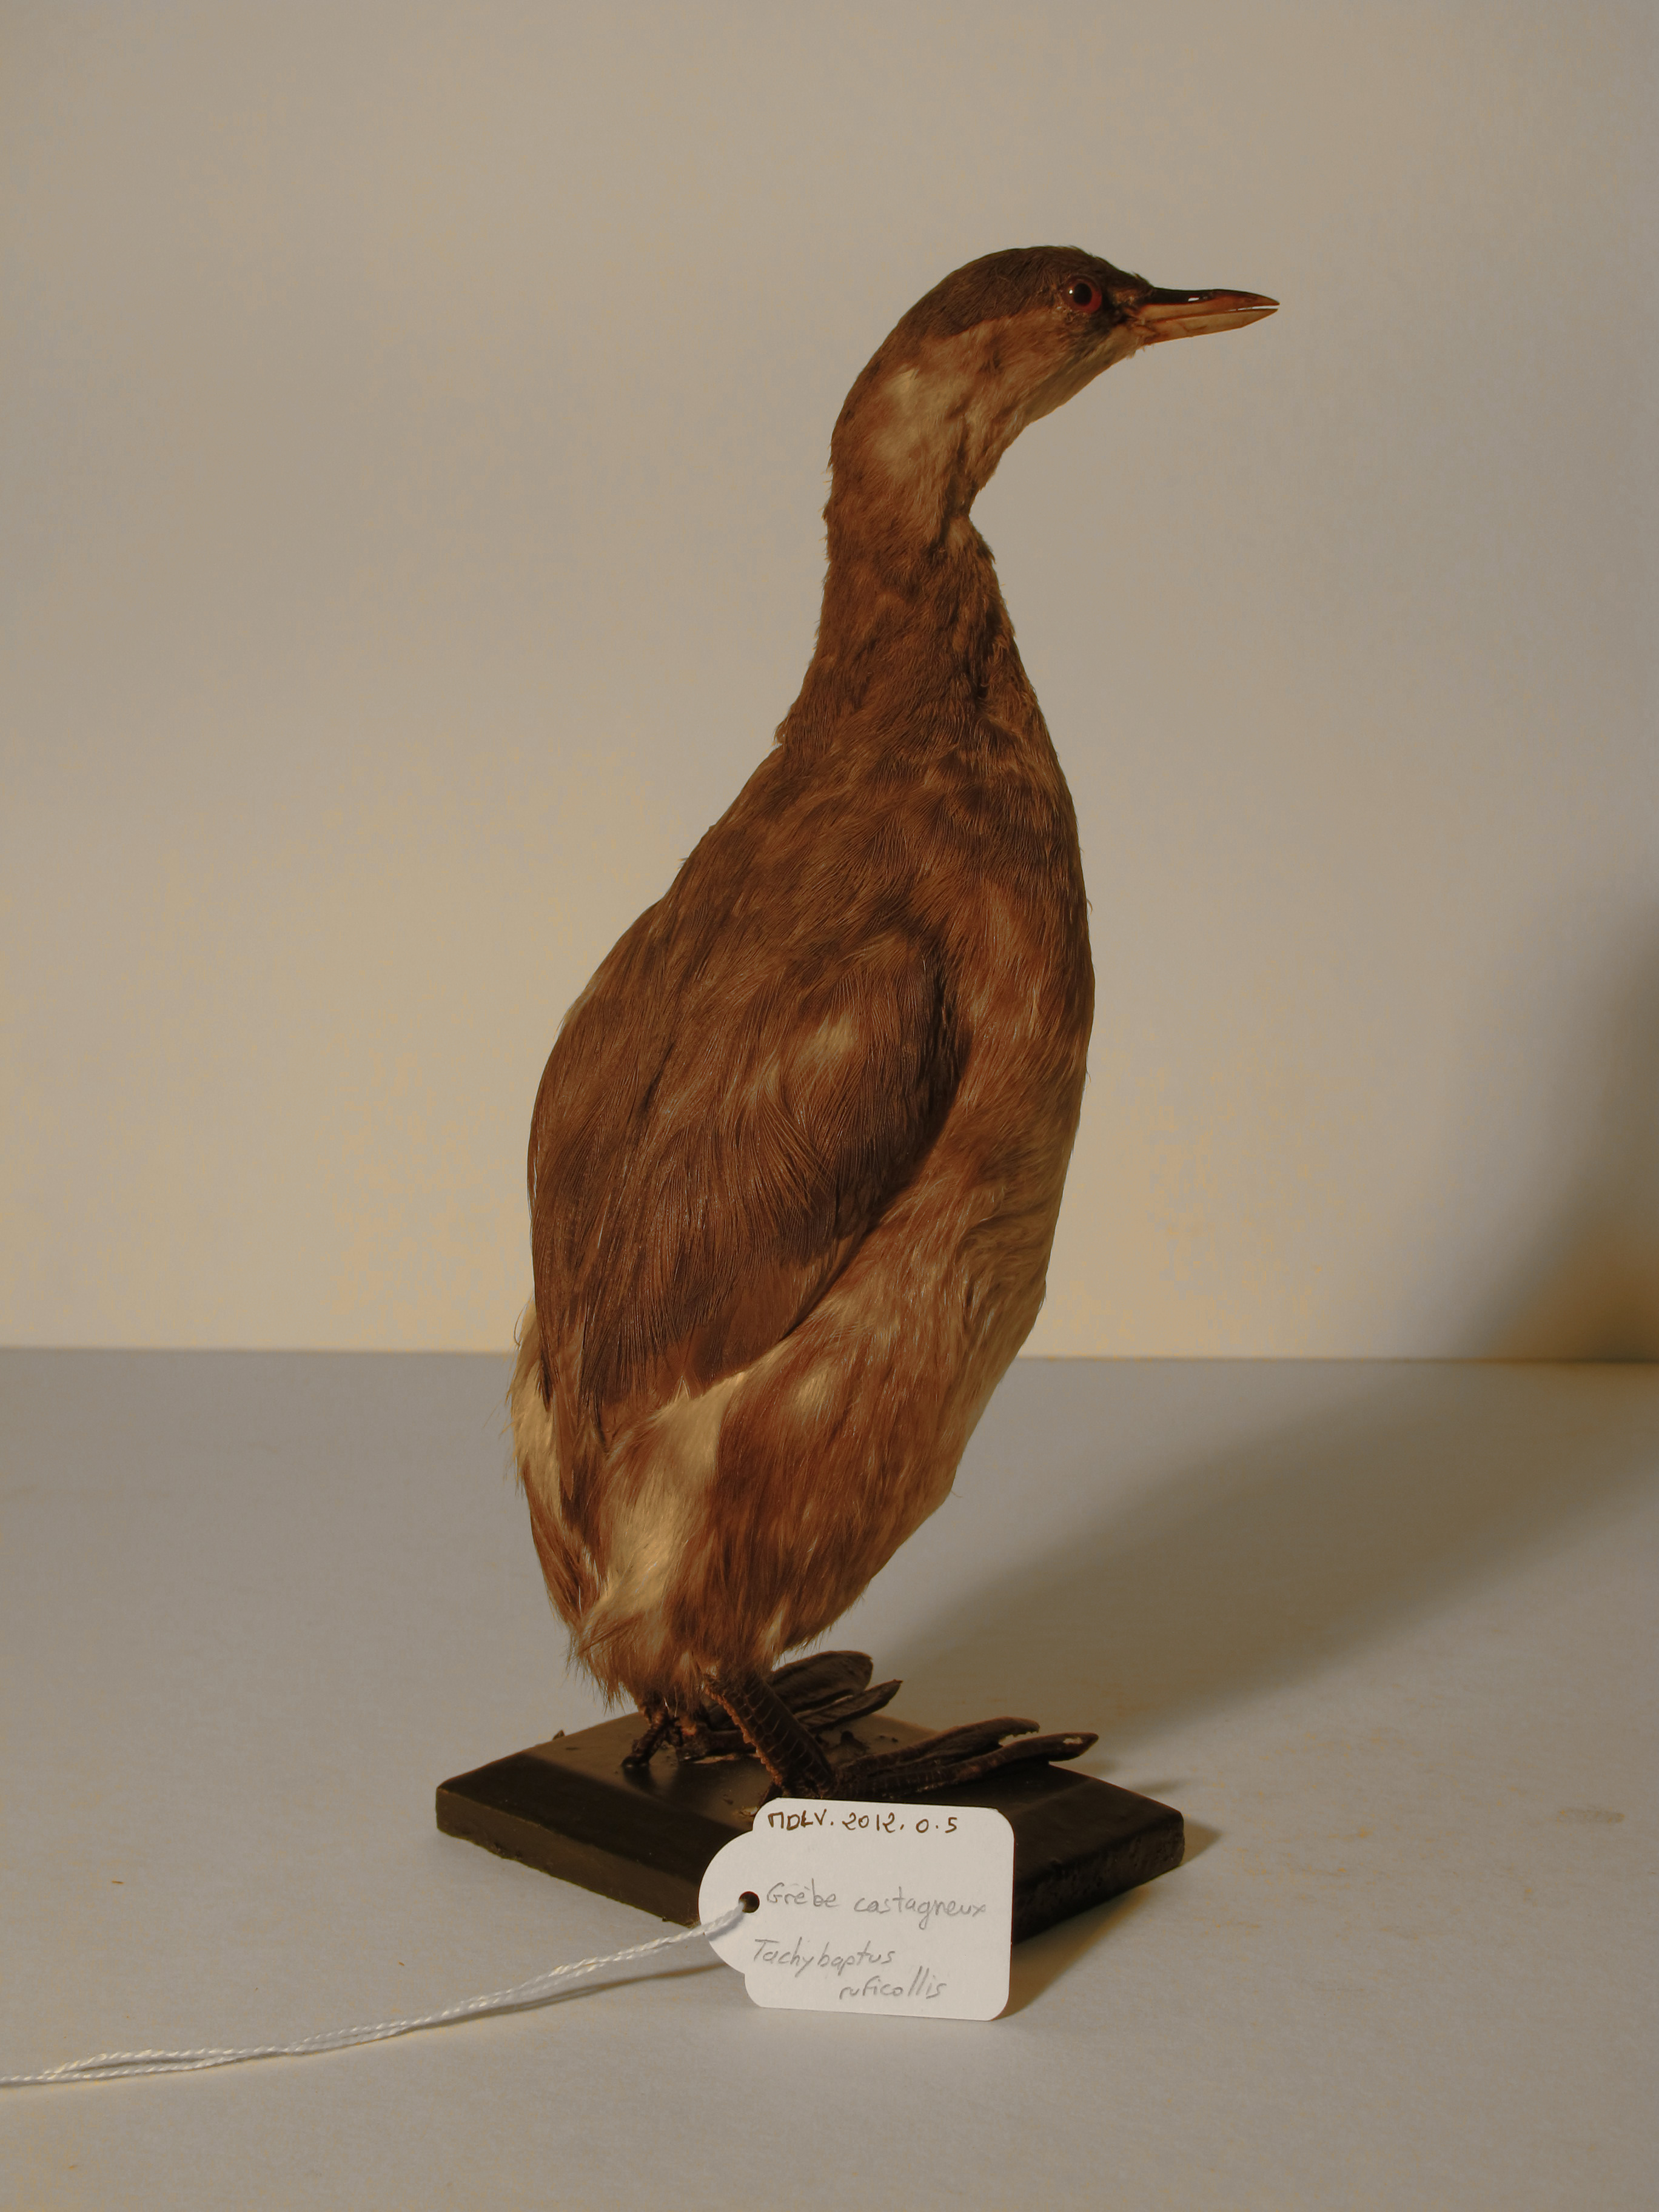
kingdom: Animalia
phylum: Chordata
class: Aves
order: Podicipediformes
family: Podicipedidae
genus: Tachybaptus
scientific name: Tachybaptus ruficollis
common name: Little Grebe
